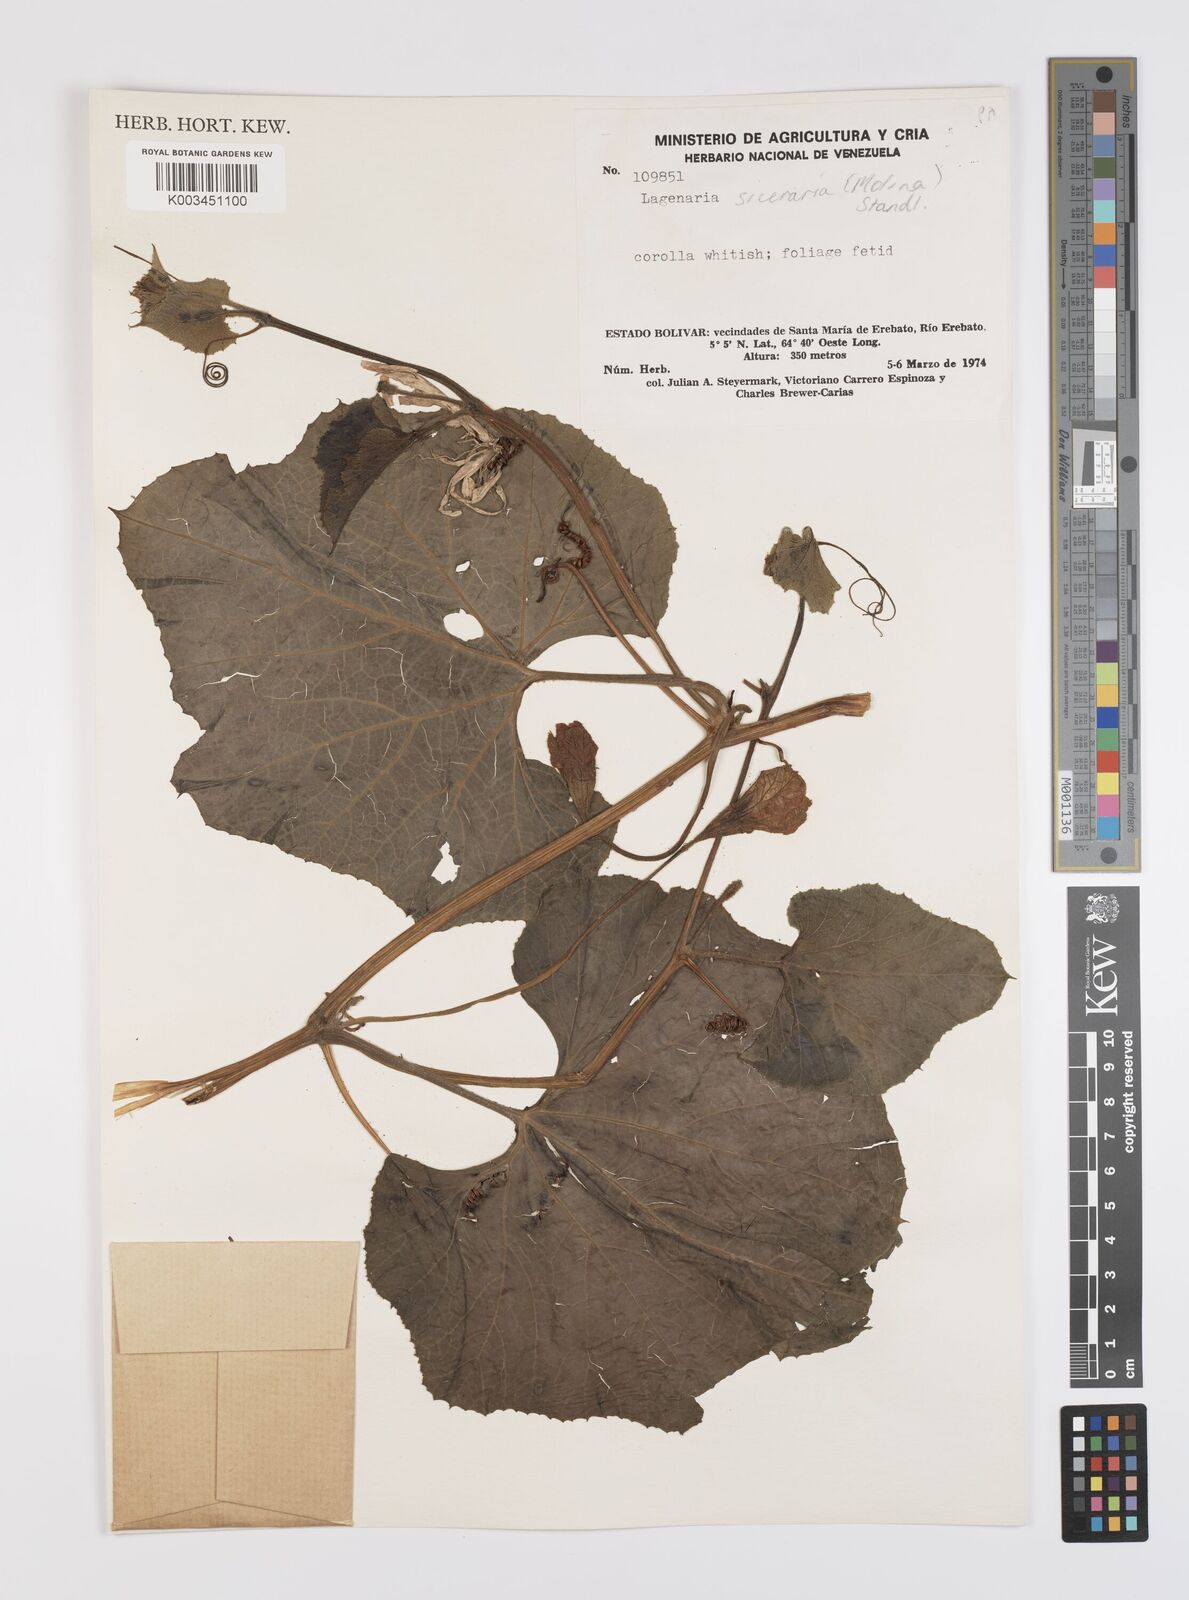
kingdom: Plantae
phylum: Tracheophyta
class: Magnoliopsida
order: Cucurbitales
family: Cucurbitaceae
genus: Lagenaria
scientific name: Lagenaria siceraria
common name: Bottle gourd
